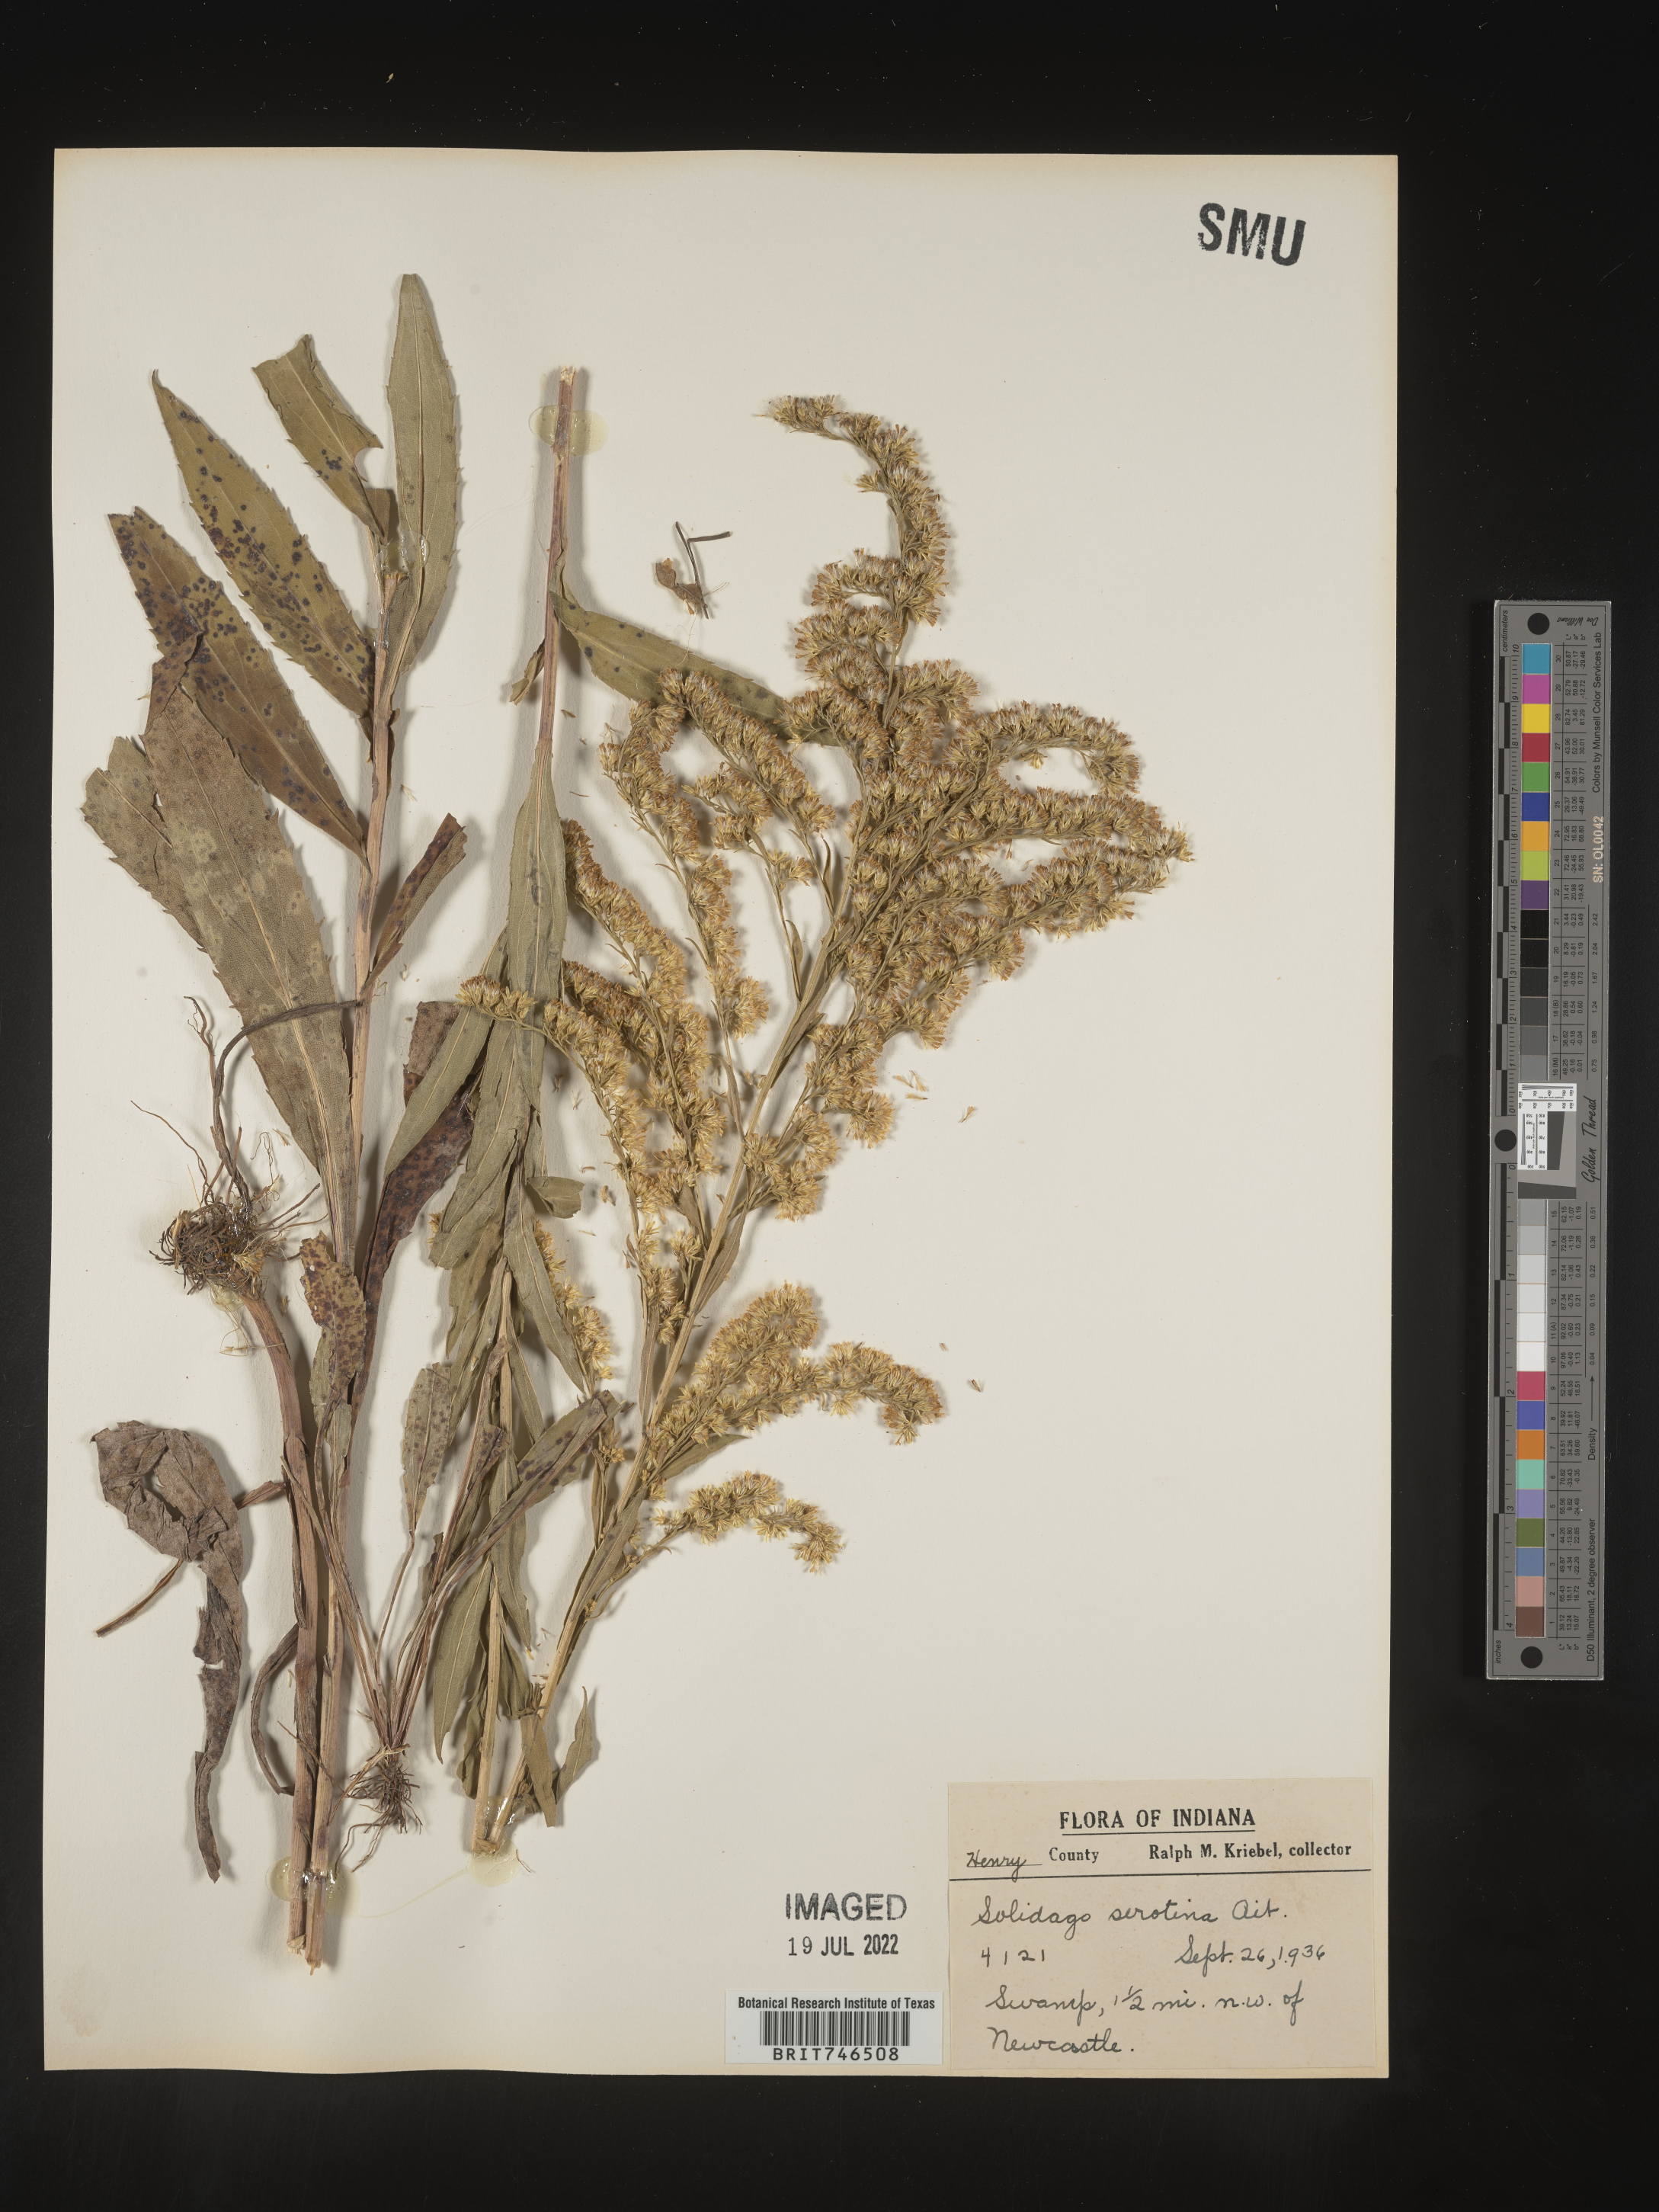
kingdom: Plantae
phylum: Tracheophyta
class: Magnoliopsida
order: Asterales
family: Asteraceae
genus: Solidago
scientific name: Solidago gigantea
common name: Giant goldenrod
